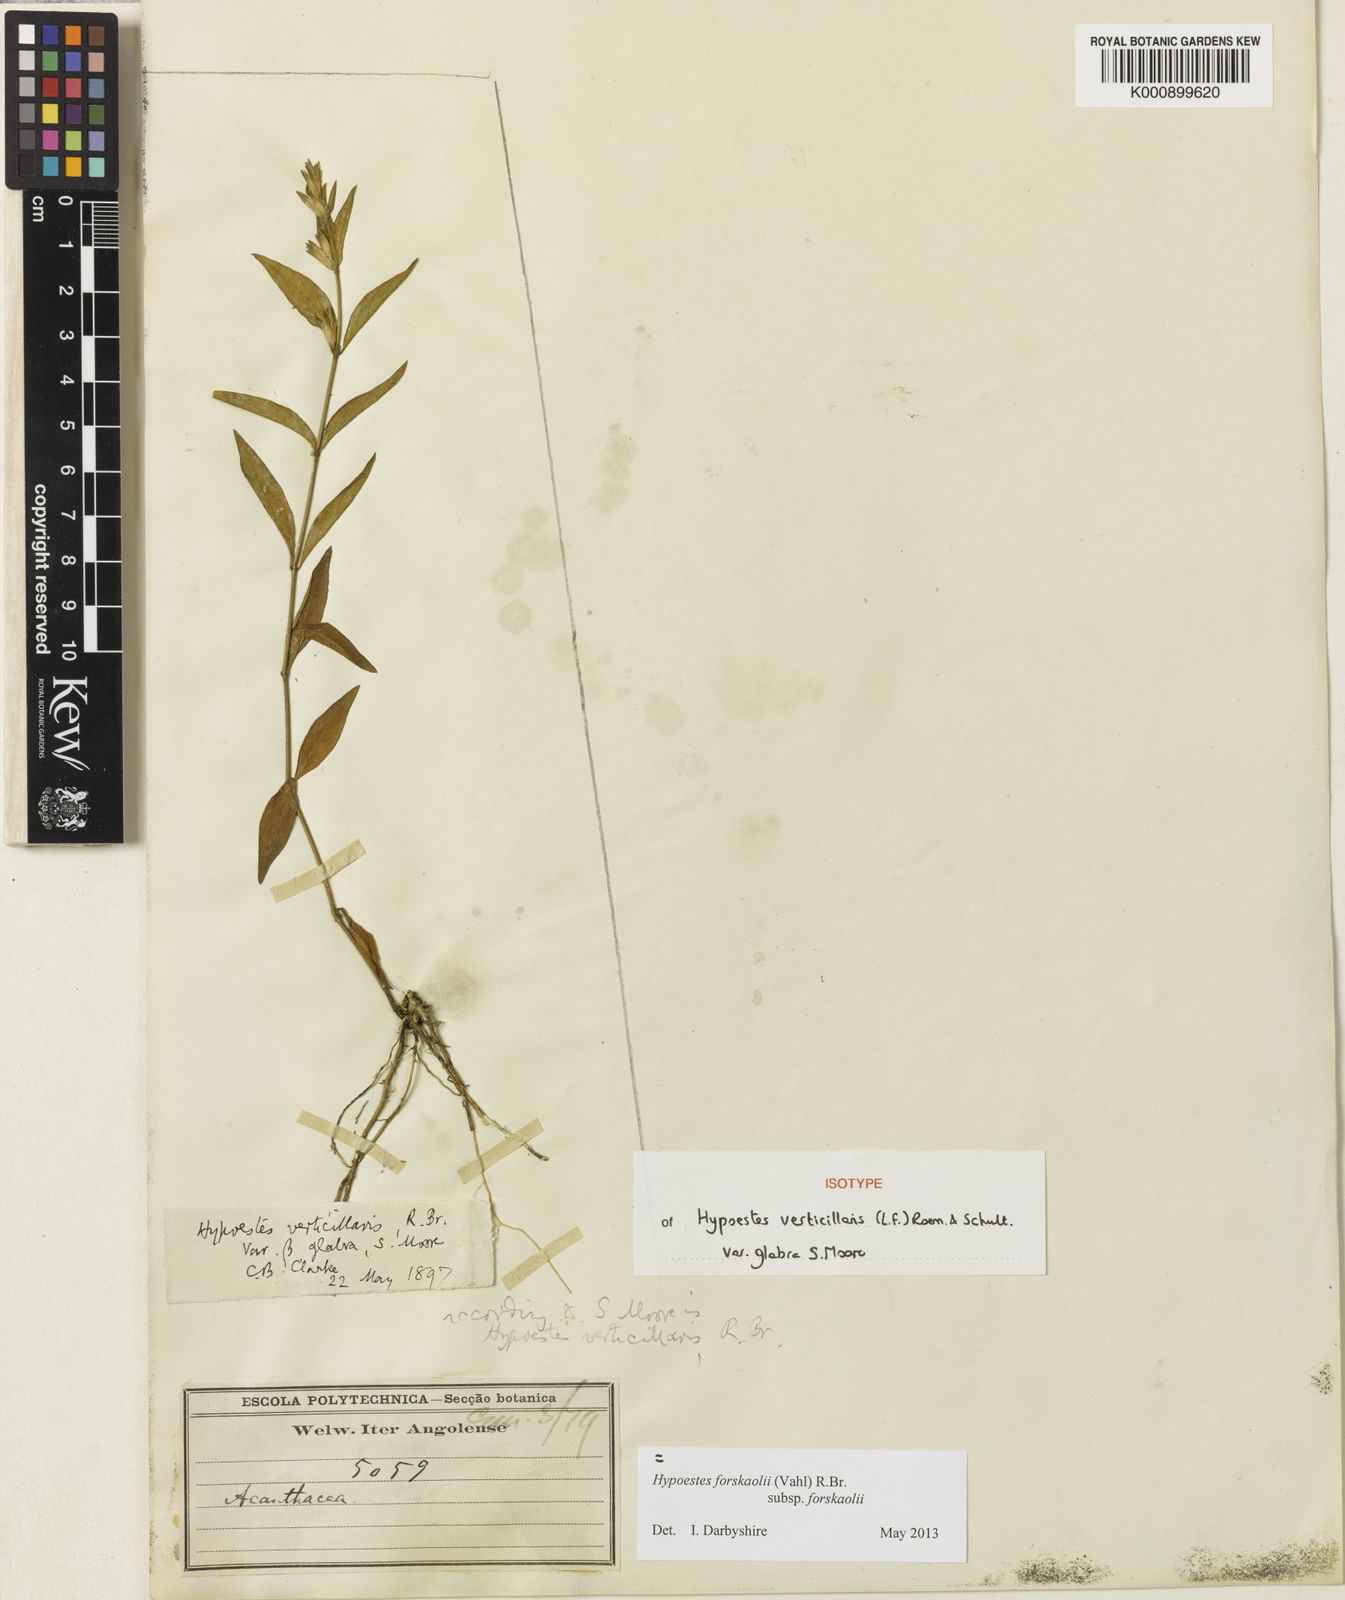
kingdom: Plantae
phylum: Tracheophyta
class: Magnoliopsida
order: Lamiales
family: Acanthaceae
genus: Hypoestes
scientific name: Hypoestes forskaolii
